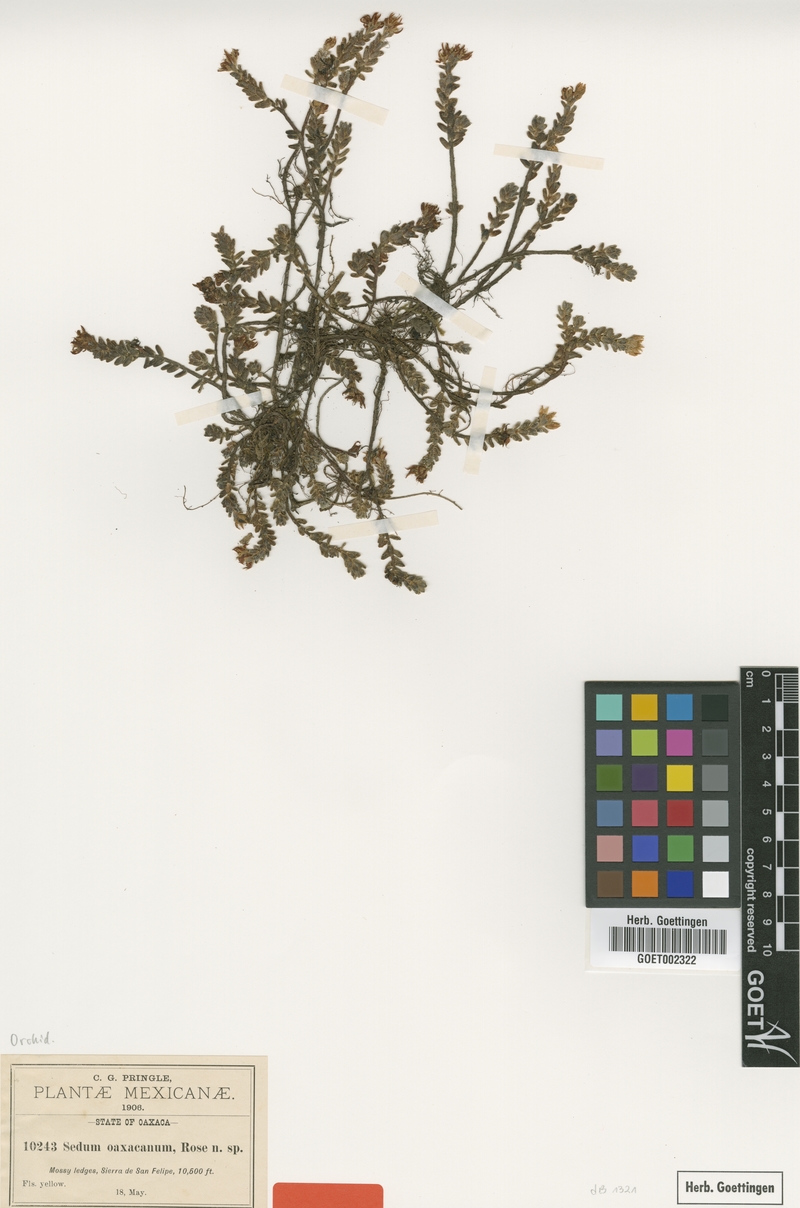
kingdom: Plantae
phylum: Tracheophyta
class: Magnoliopsida
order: Saxifragales
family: Crassulaceae
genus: Sedum
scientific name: Sedum oaxacanum
